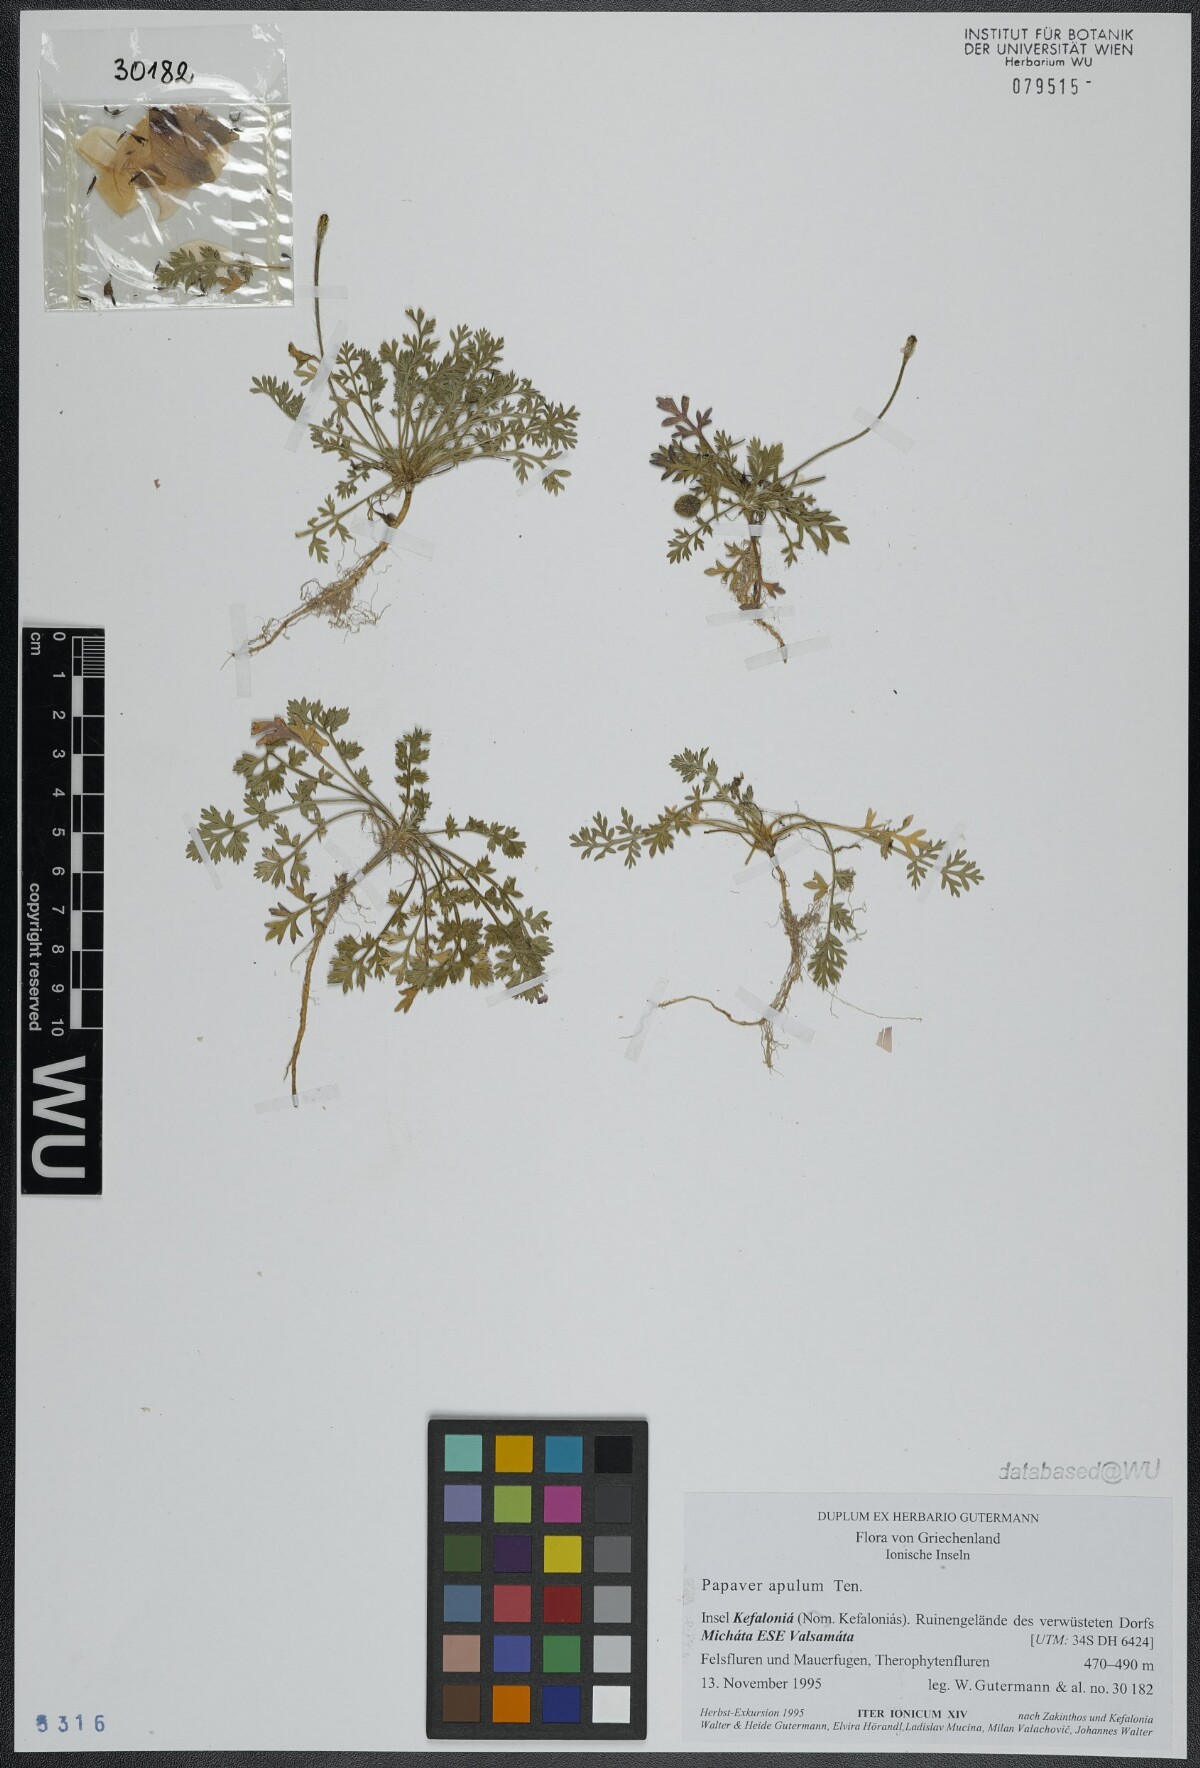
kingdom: Plantae
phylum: Tracheophyta
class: Magnoliopsida
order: Ranunculales
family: Papaveraceae
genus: Roemeria
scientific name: Roemeria apula
